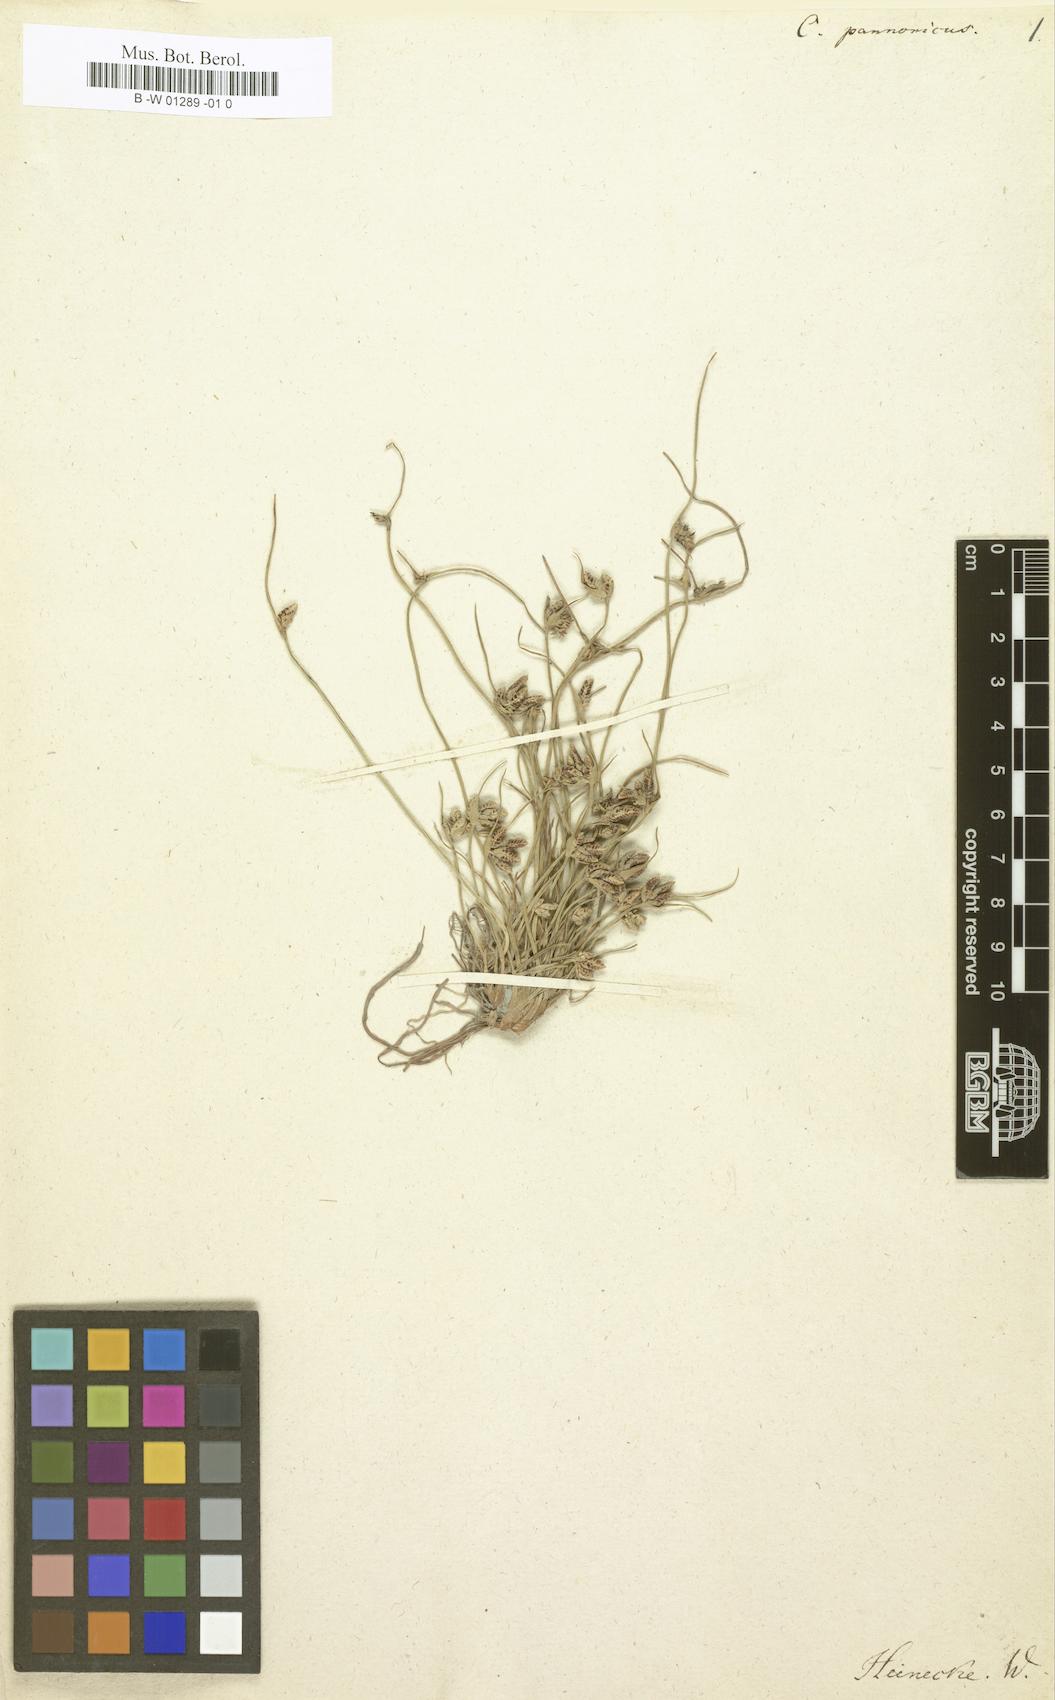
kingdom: Plantae
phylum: Tracheophyta
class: Liliopsida
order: Poales
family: Cyperaceae
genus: Cyperus
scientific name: Cyperus pannonicus
